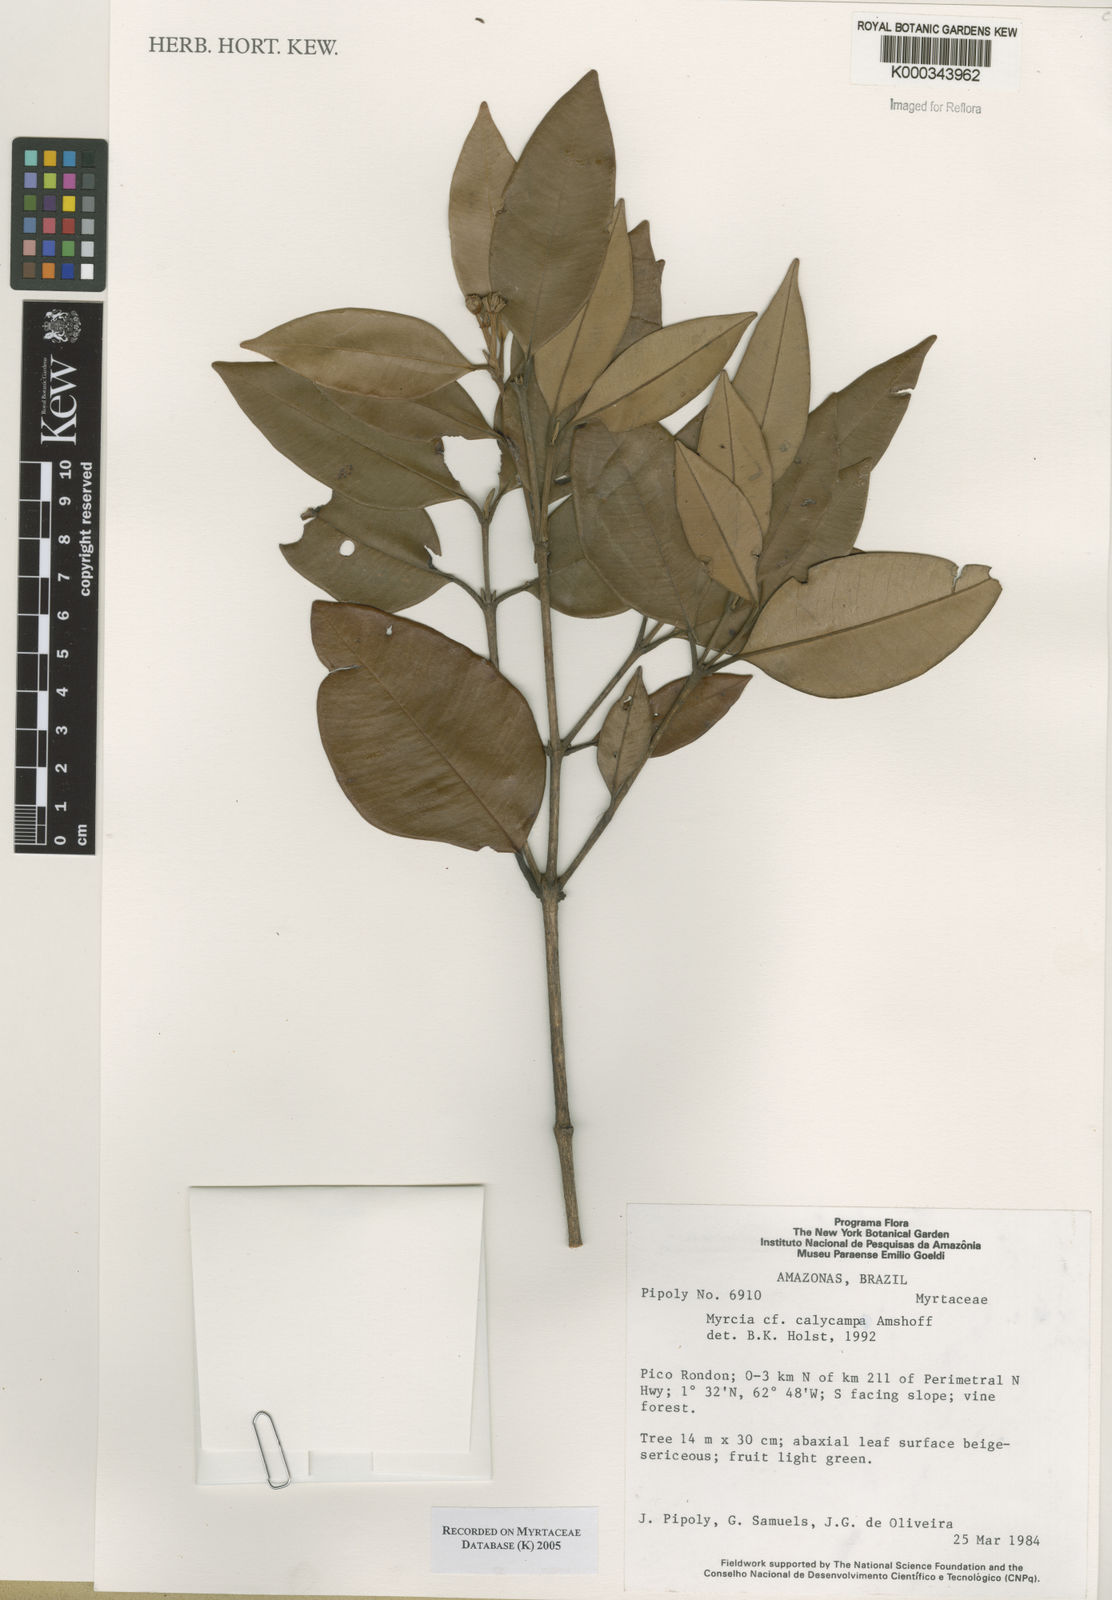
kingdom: Plantae
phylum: Tracheophyta
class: Magnoliopsida
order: Myrtales
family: Myrtaceae
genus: Myrcia
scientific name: Myrcia calycampa
